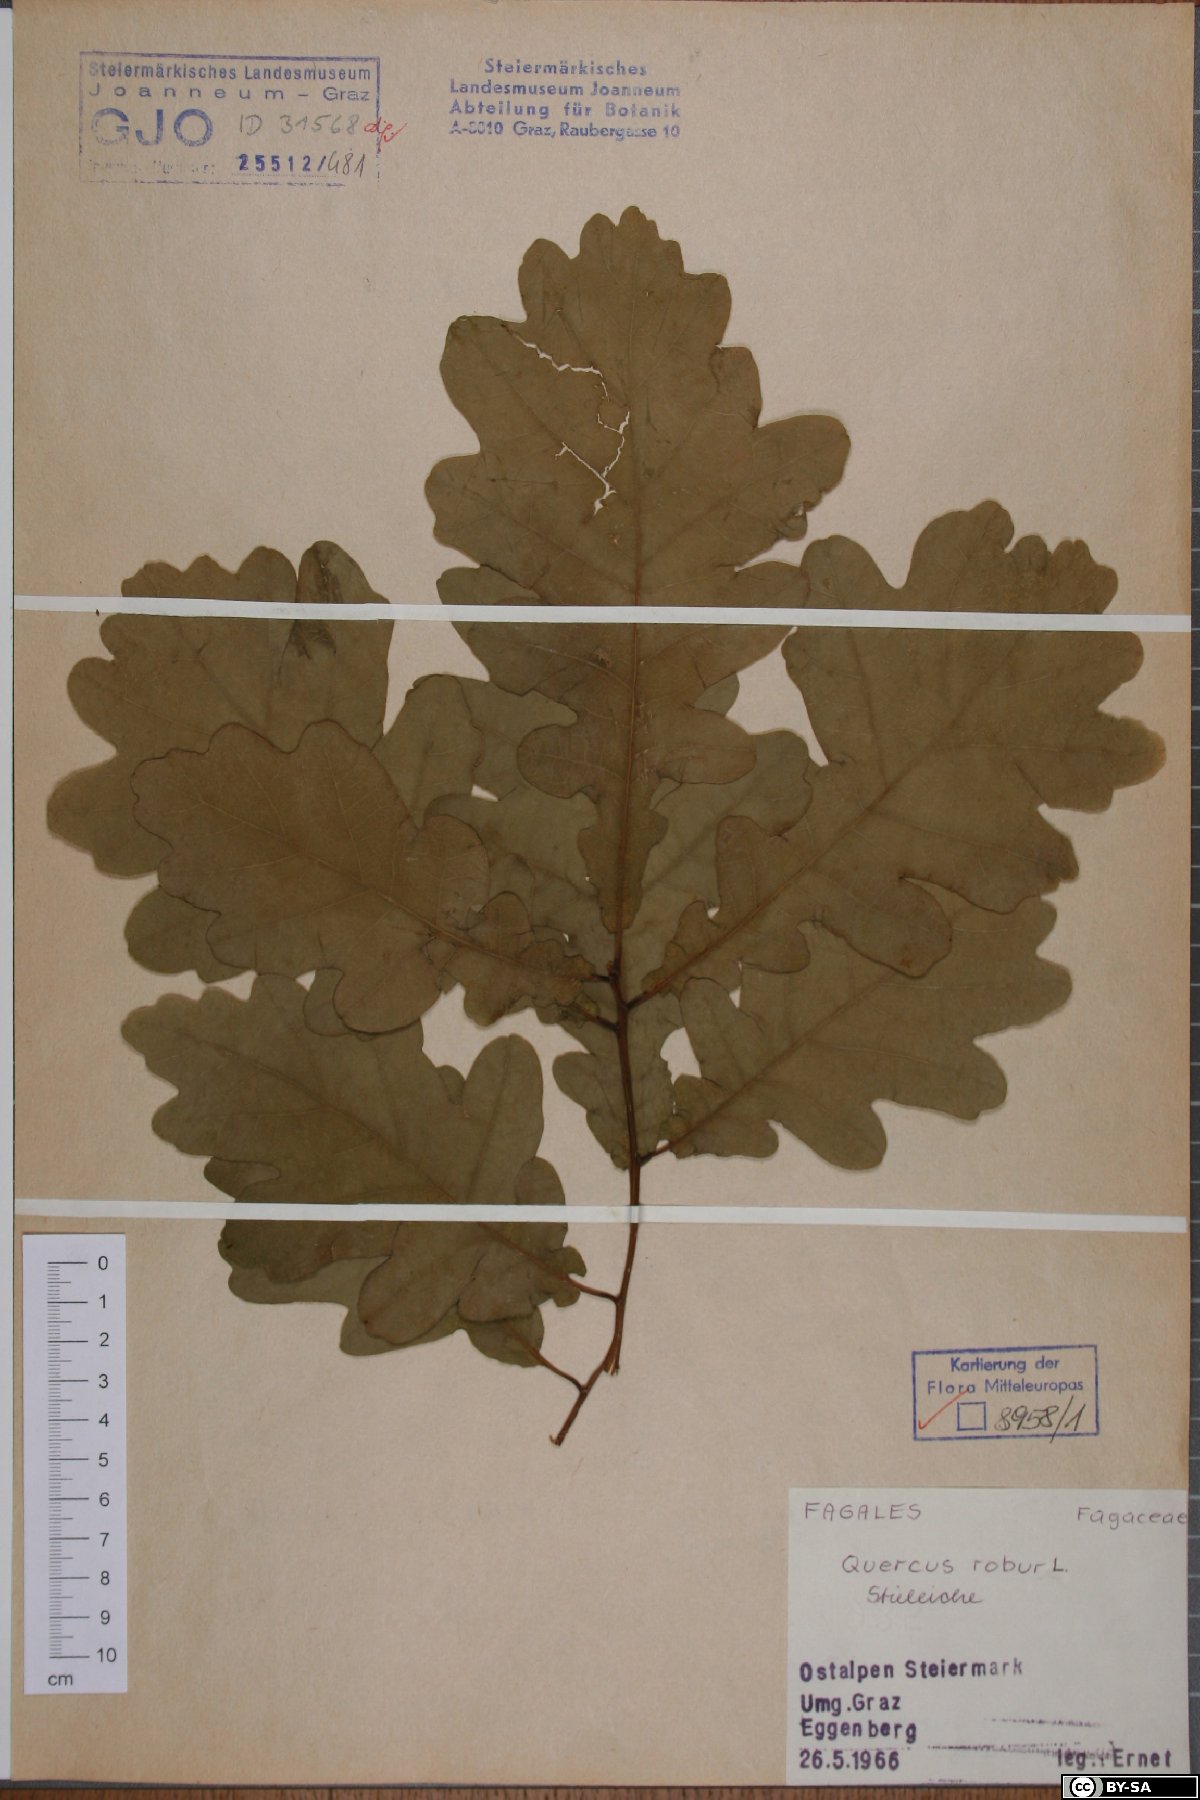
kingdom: Plantae
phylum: Tracheophyta
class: Magnoliopsida
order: Fagales
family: Fagaceae
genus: Quercus
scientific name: Quercus robur
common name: Pedunculate oak
